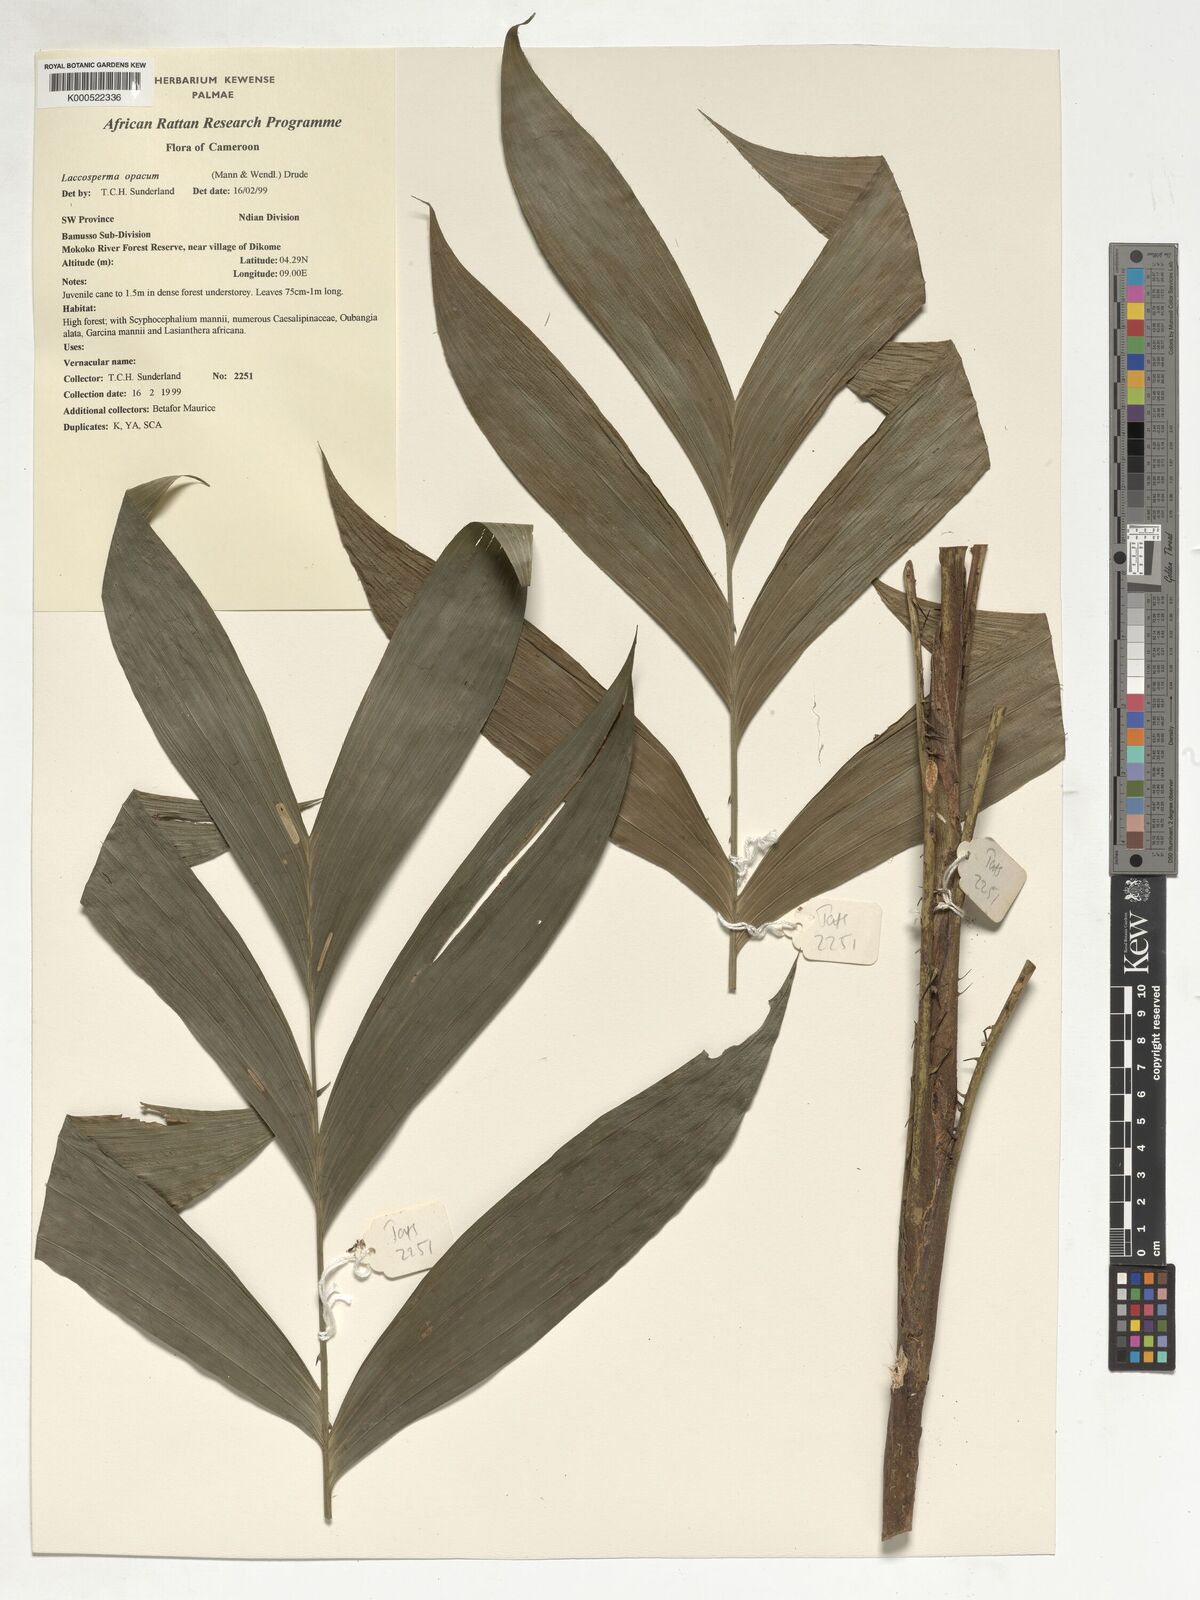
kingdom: Plantae
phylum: Tracheophyta
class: Liliopsida
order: Arecales
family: Arecaceae
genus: Laccosperma
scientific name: Laccosperma opacum
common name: Rattan
